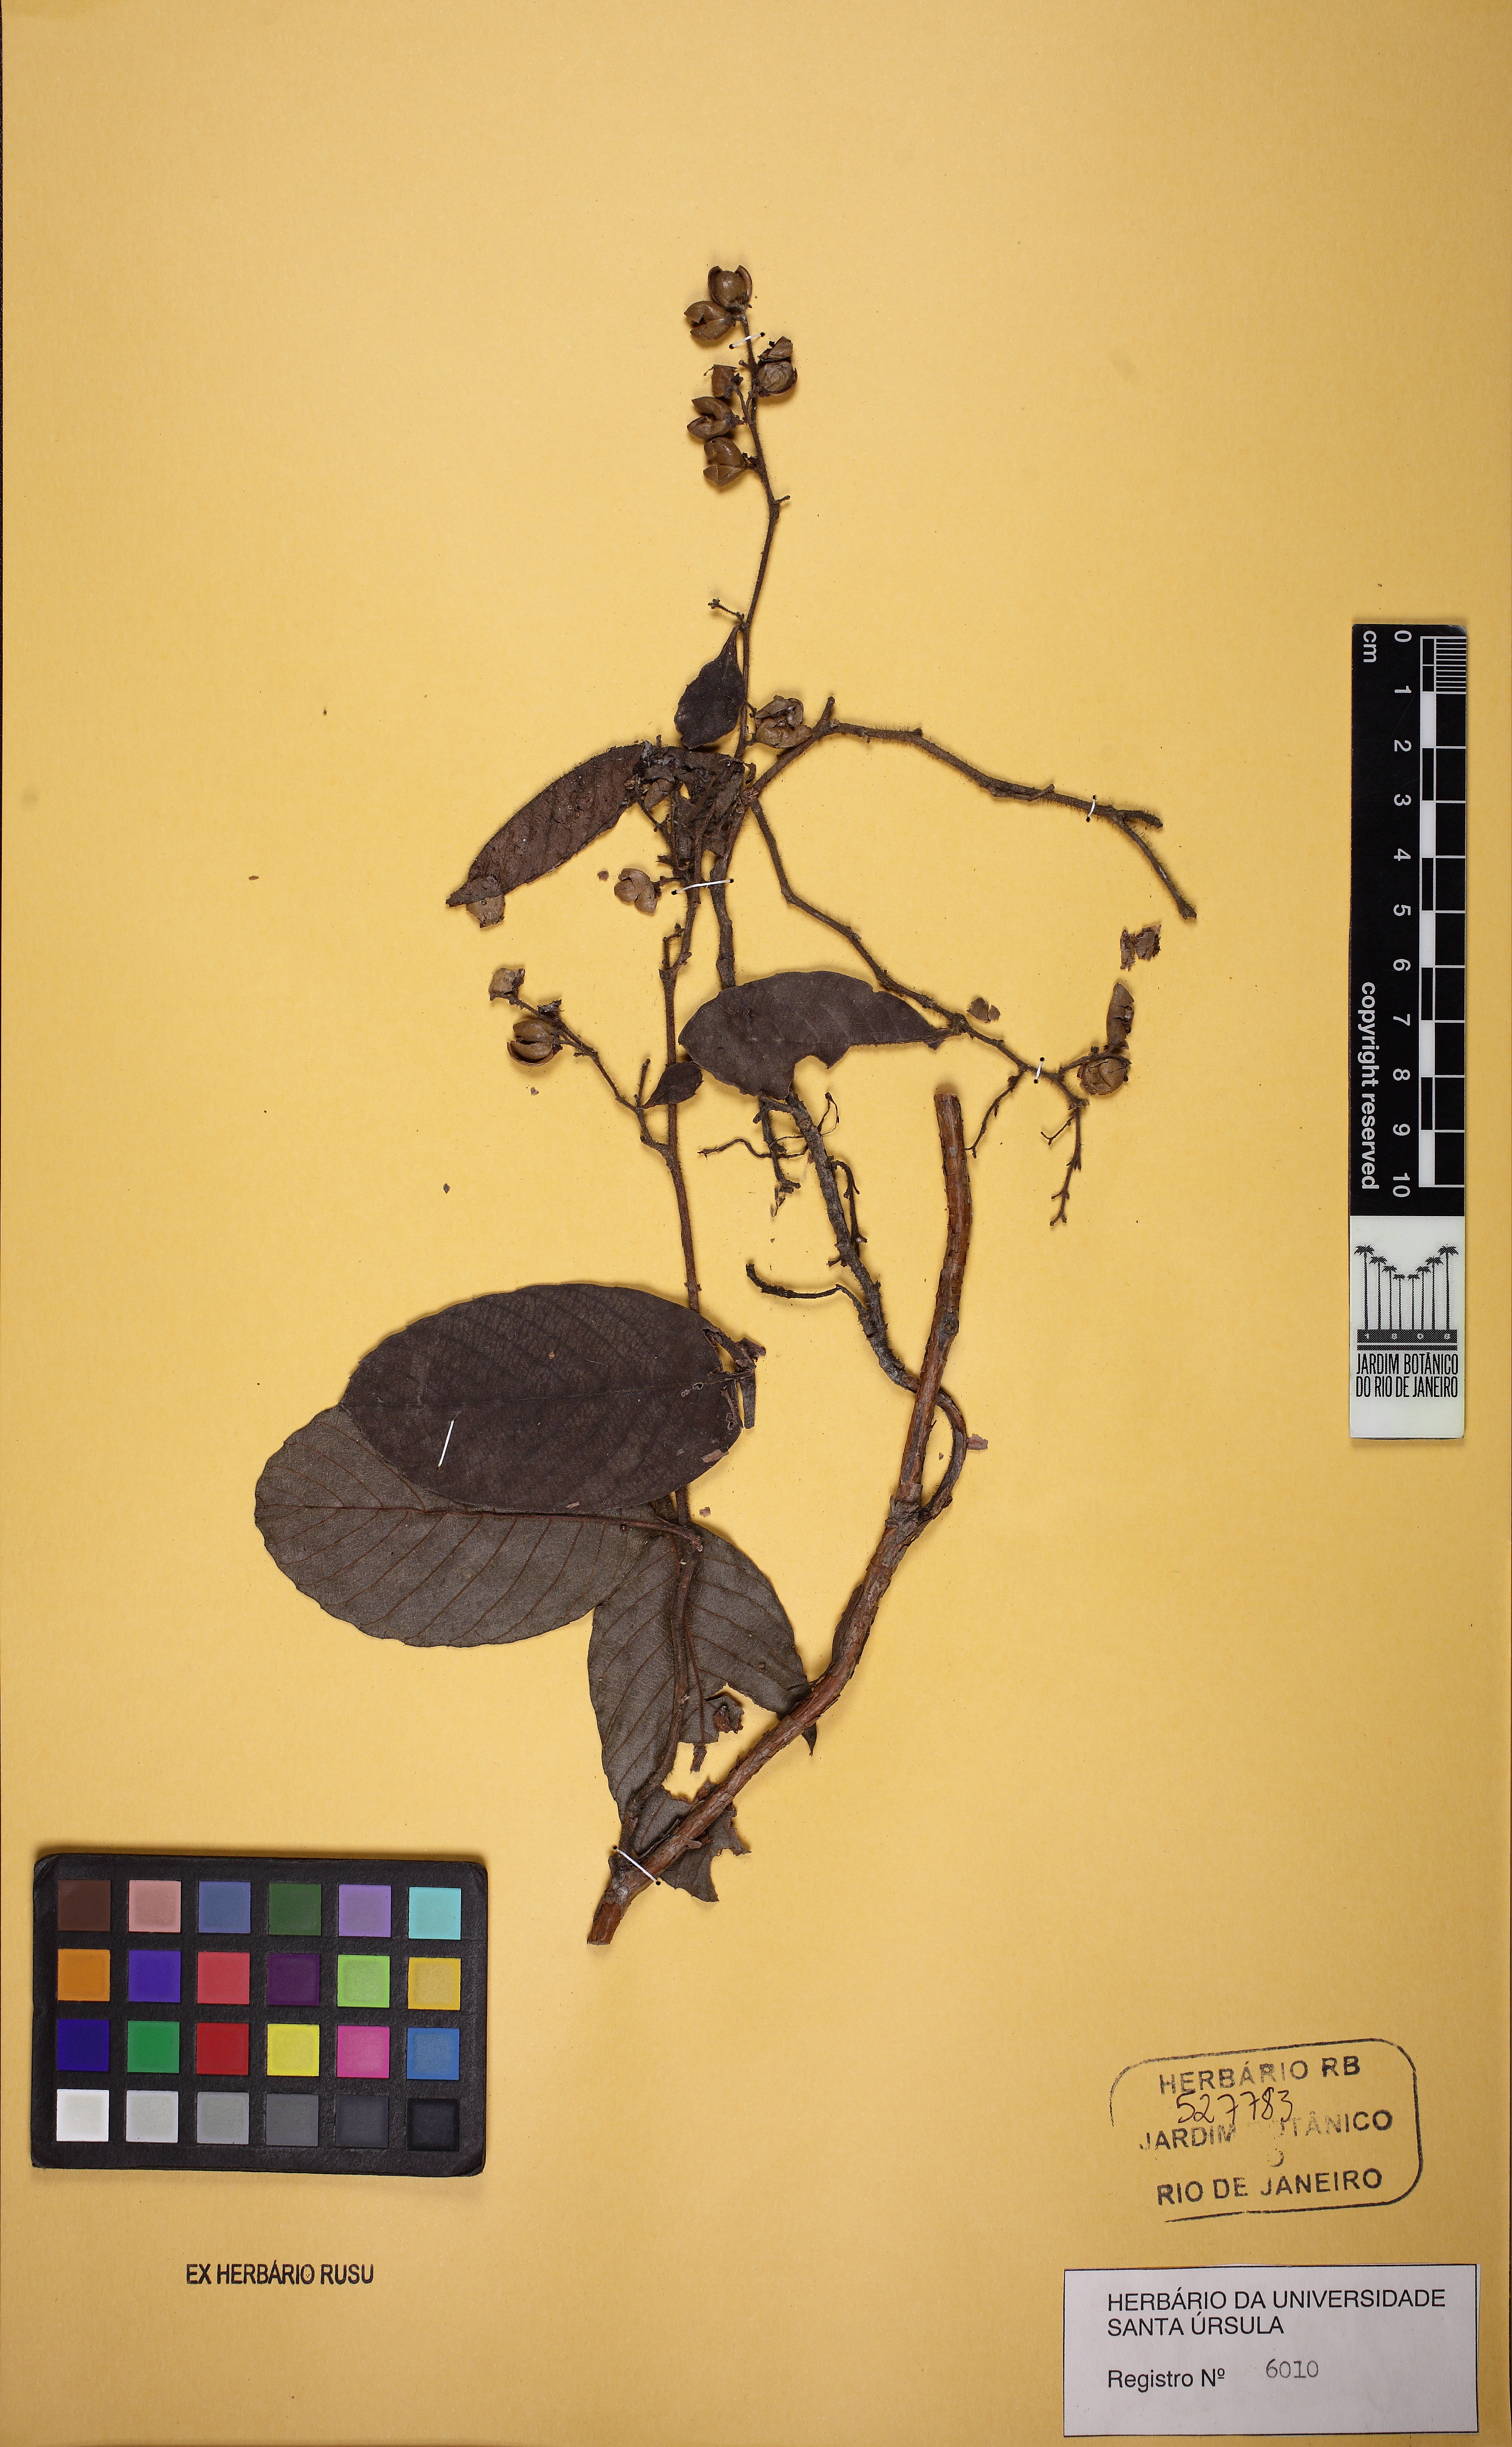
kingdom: Plantae
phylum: Tracheophyta
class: Magnoliopsida
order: Dilleniales
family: Dilleniaceae
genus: Davilla
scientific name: Davilla rugosa
